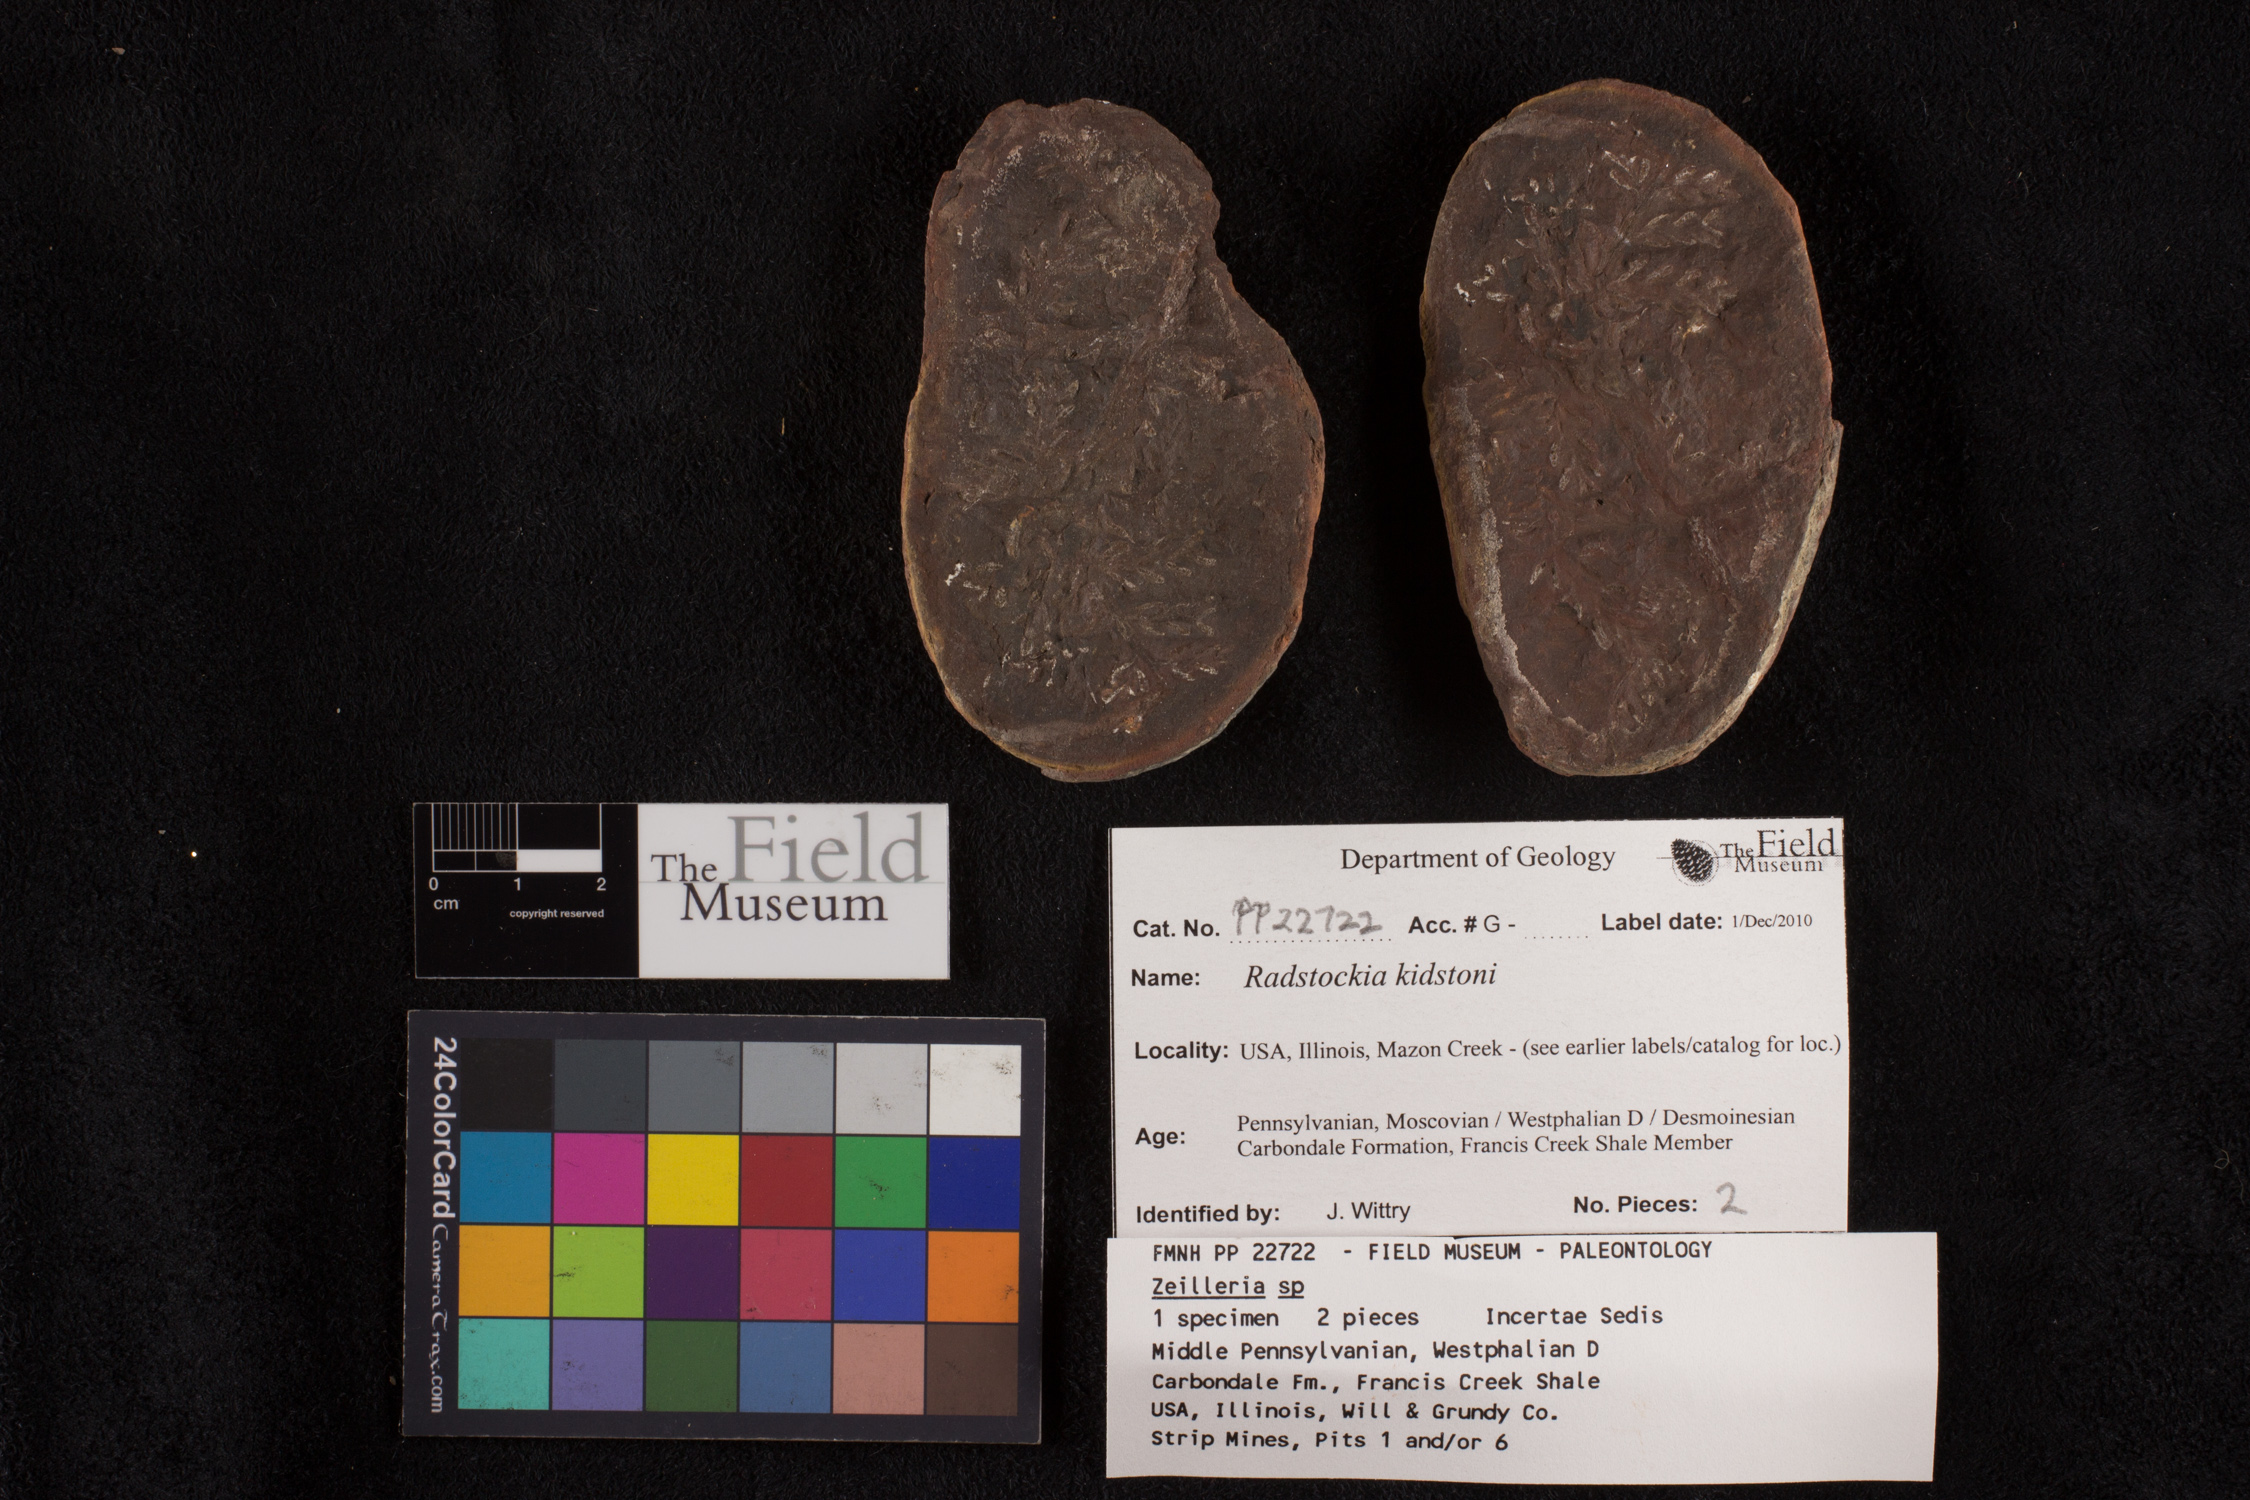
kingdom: Plantae
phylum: Tracheophyta
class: Polypodiopsida
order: Marattiales
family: Asterothecaceae
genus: Radstockia
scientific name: Radstockia
